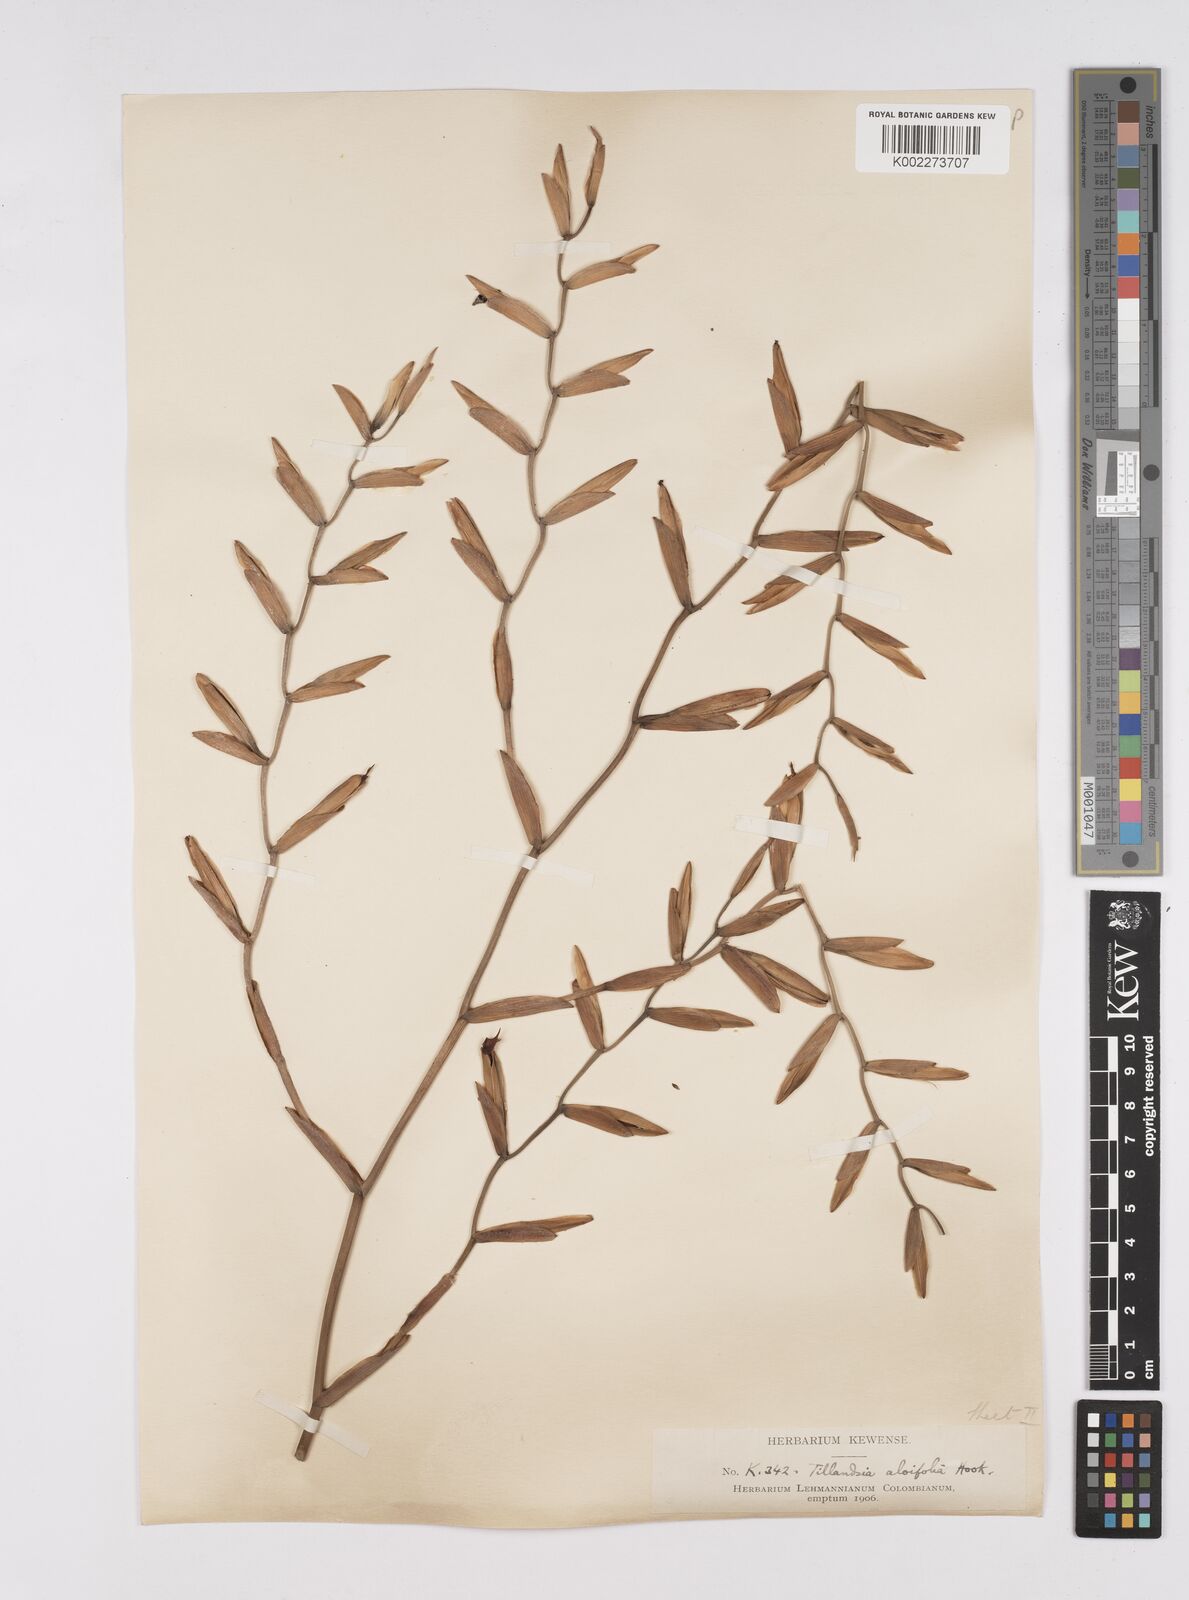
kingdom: Plantae
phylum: Tracheophyta
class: Liliopsida
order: Poales
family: Bromeliaceae
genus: Tillandsia
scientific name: Tillandsia flexuosa
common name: Banded airplant
